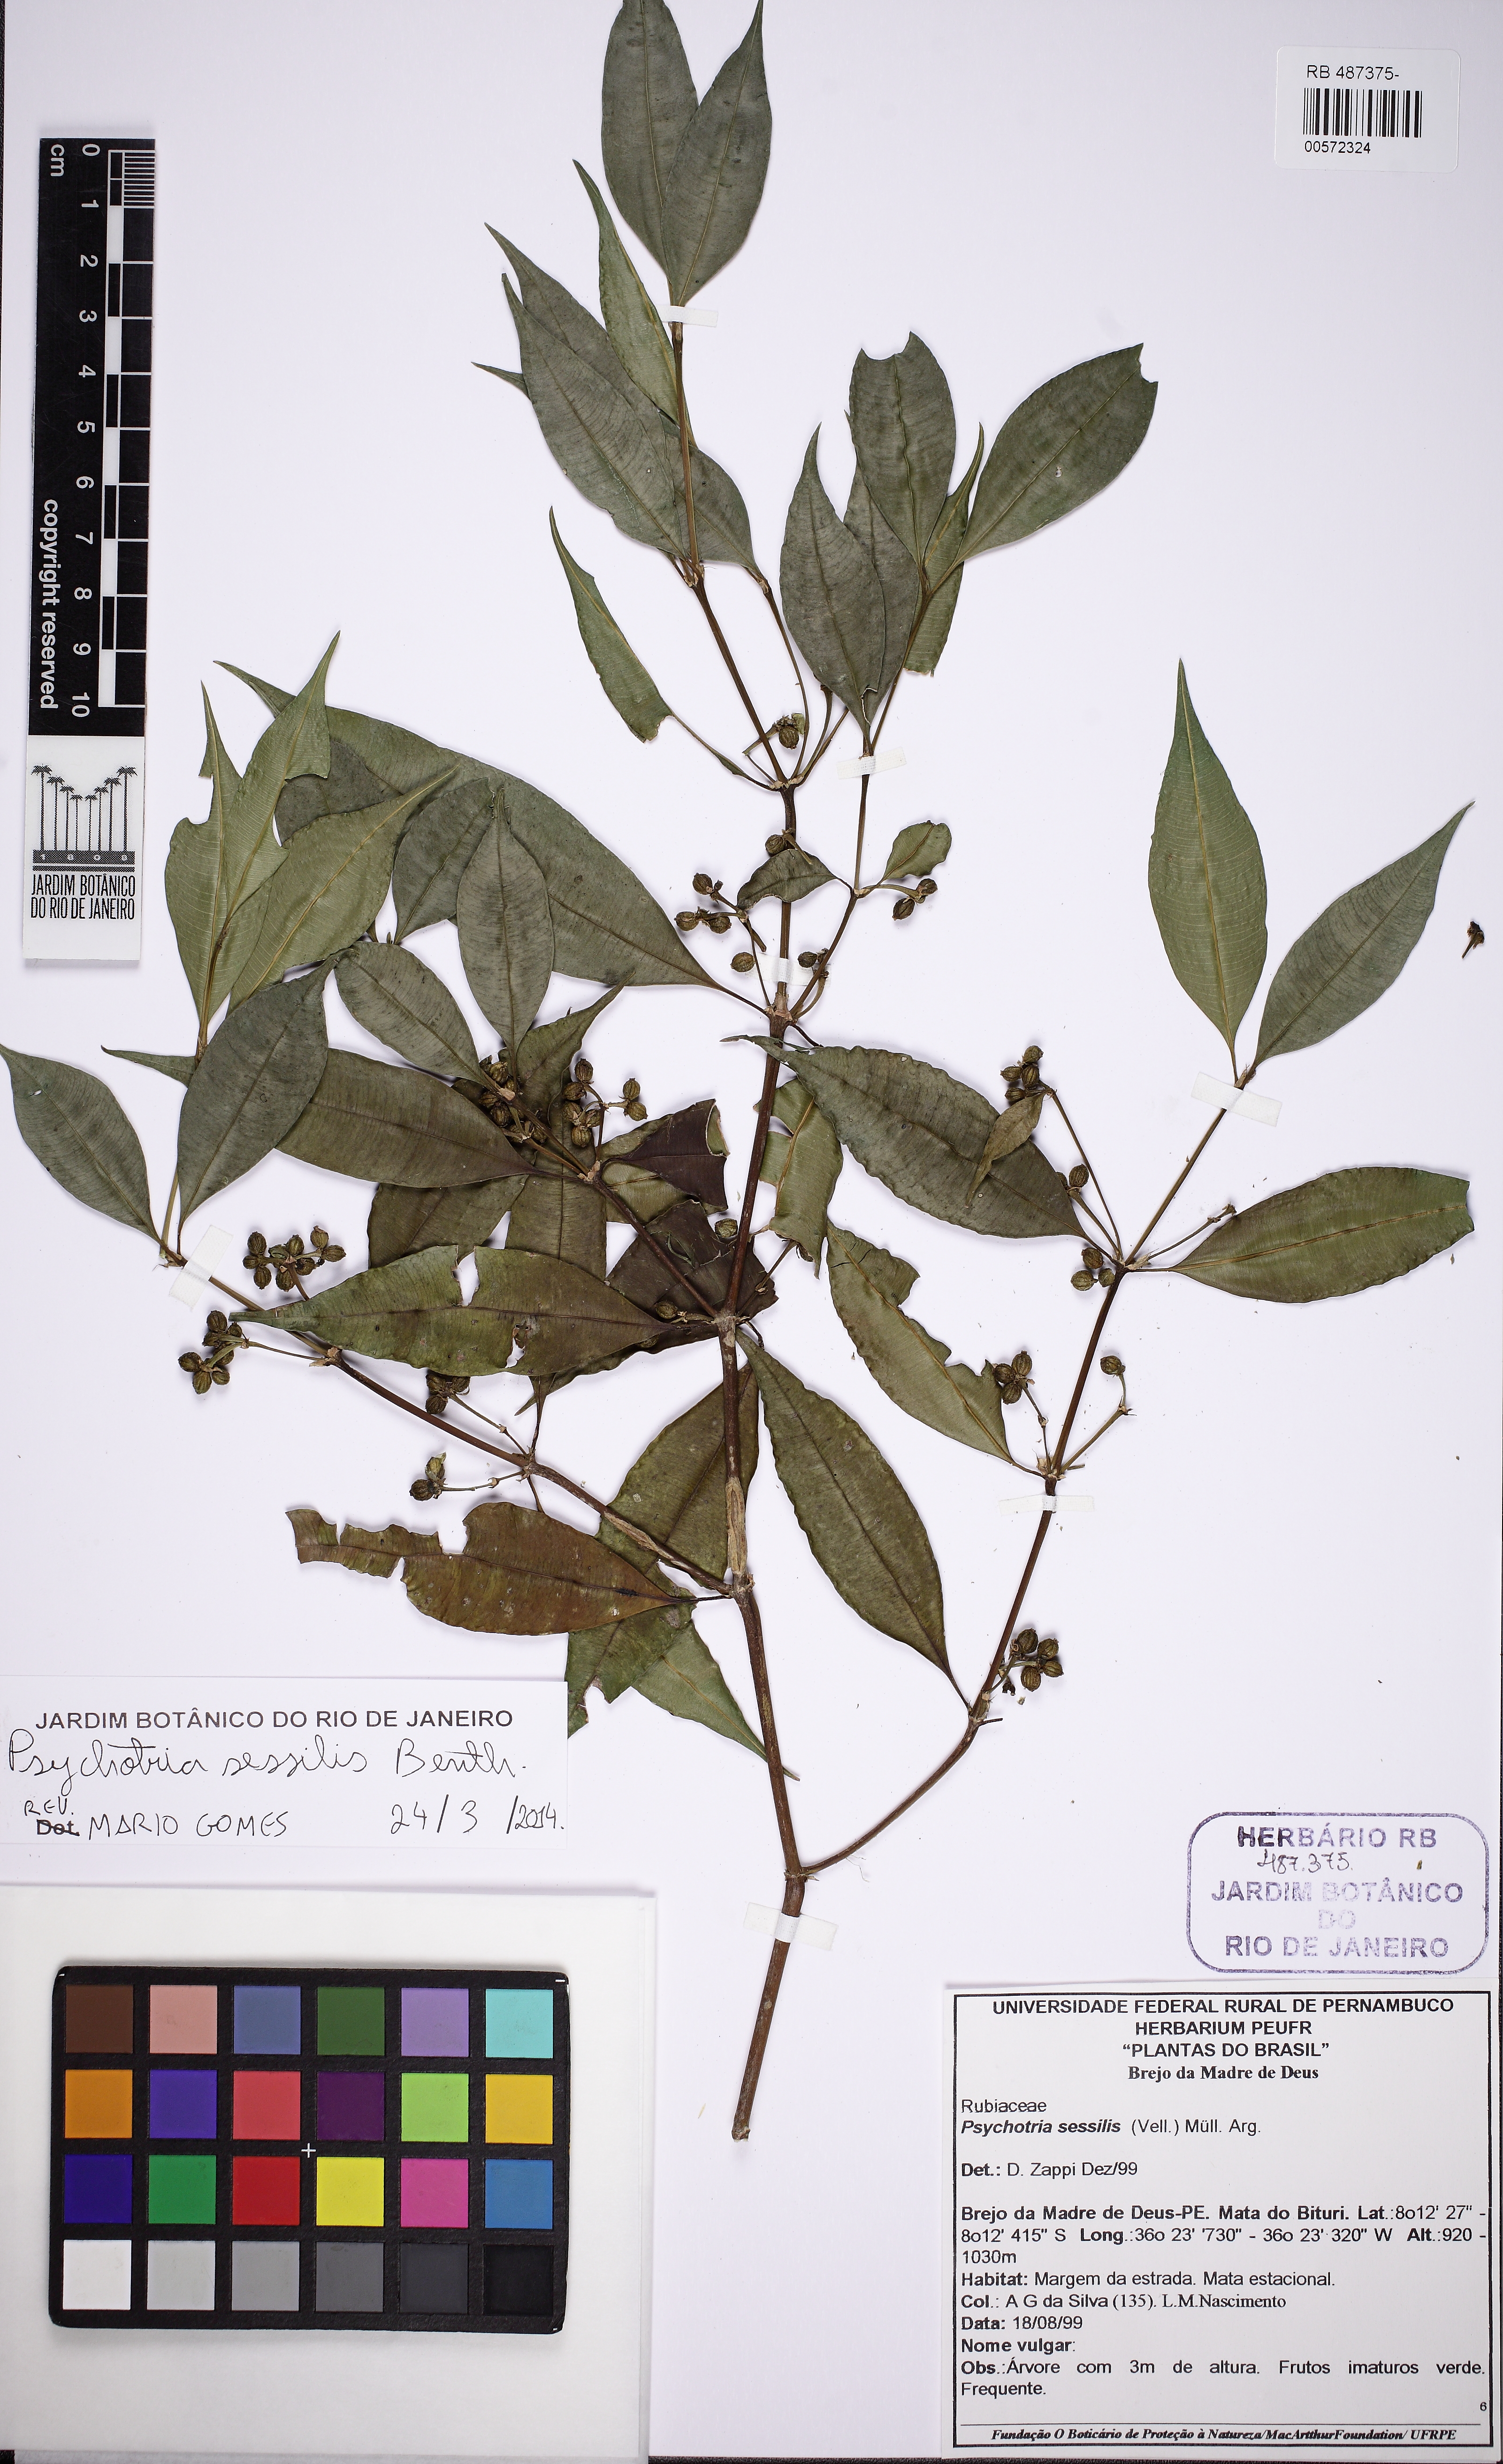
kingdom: Plantae
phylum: Tracheophyta
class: Magnoliopsida
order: Gentianales
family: Rubiaceae
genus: Palicourea
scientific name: Palicourea sessilis
